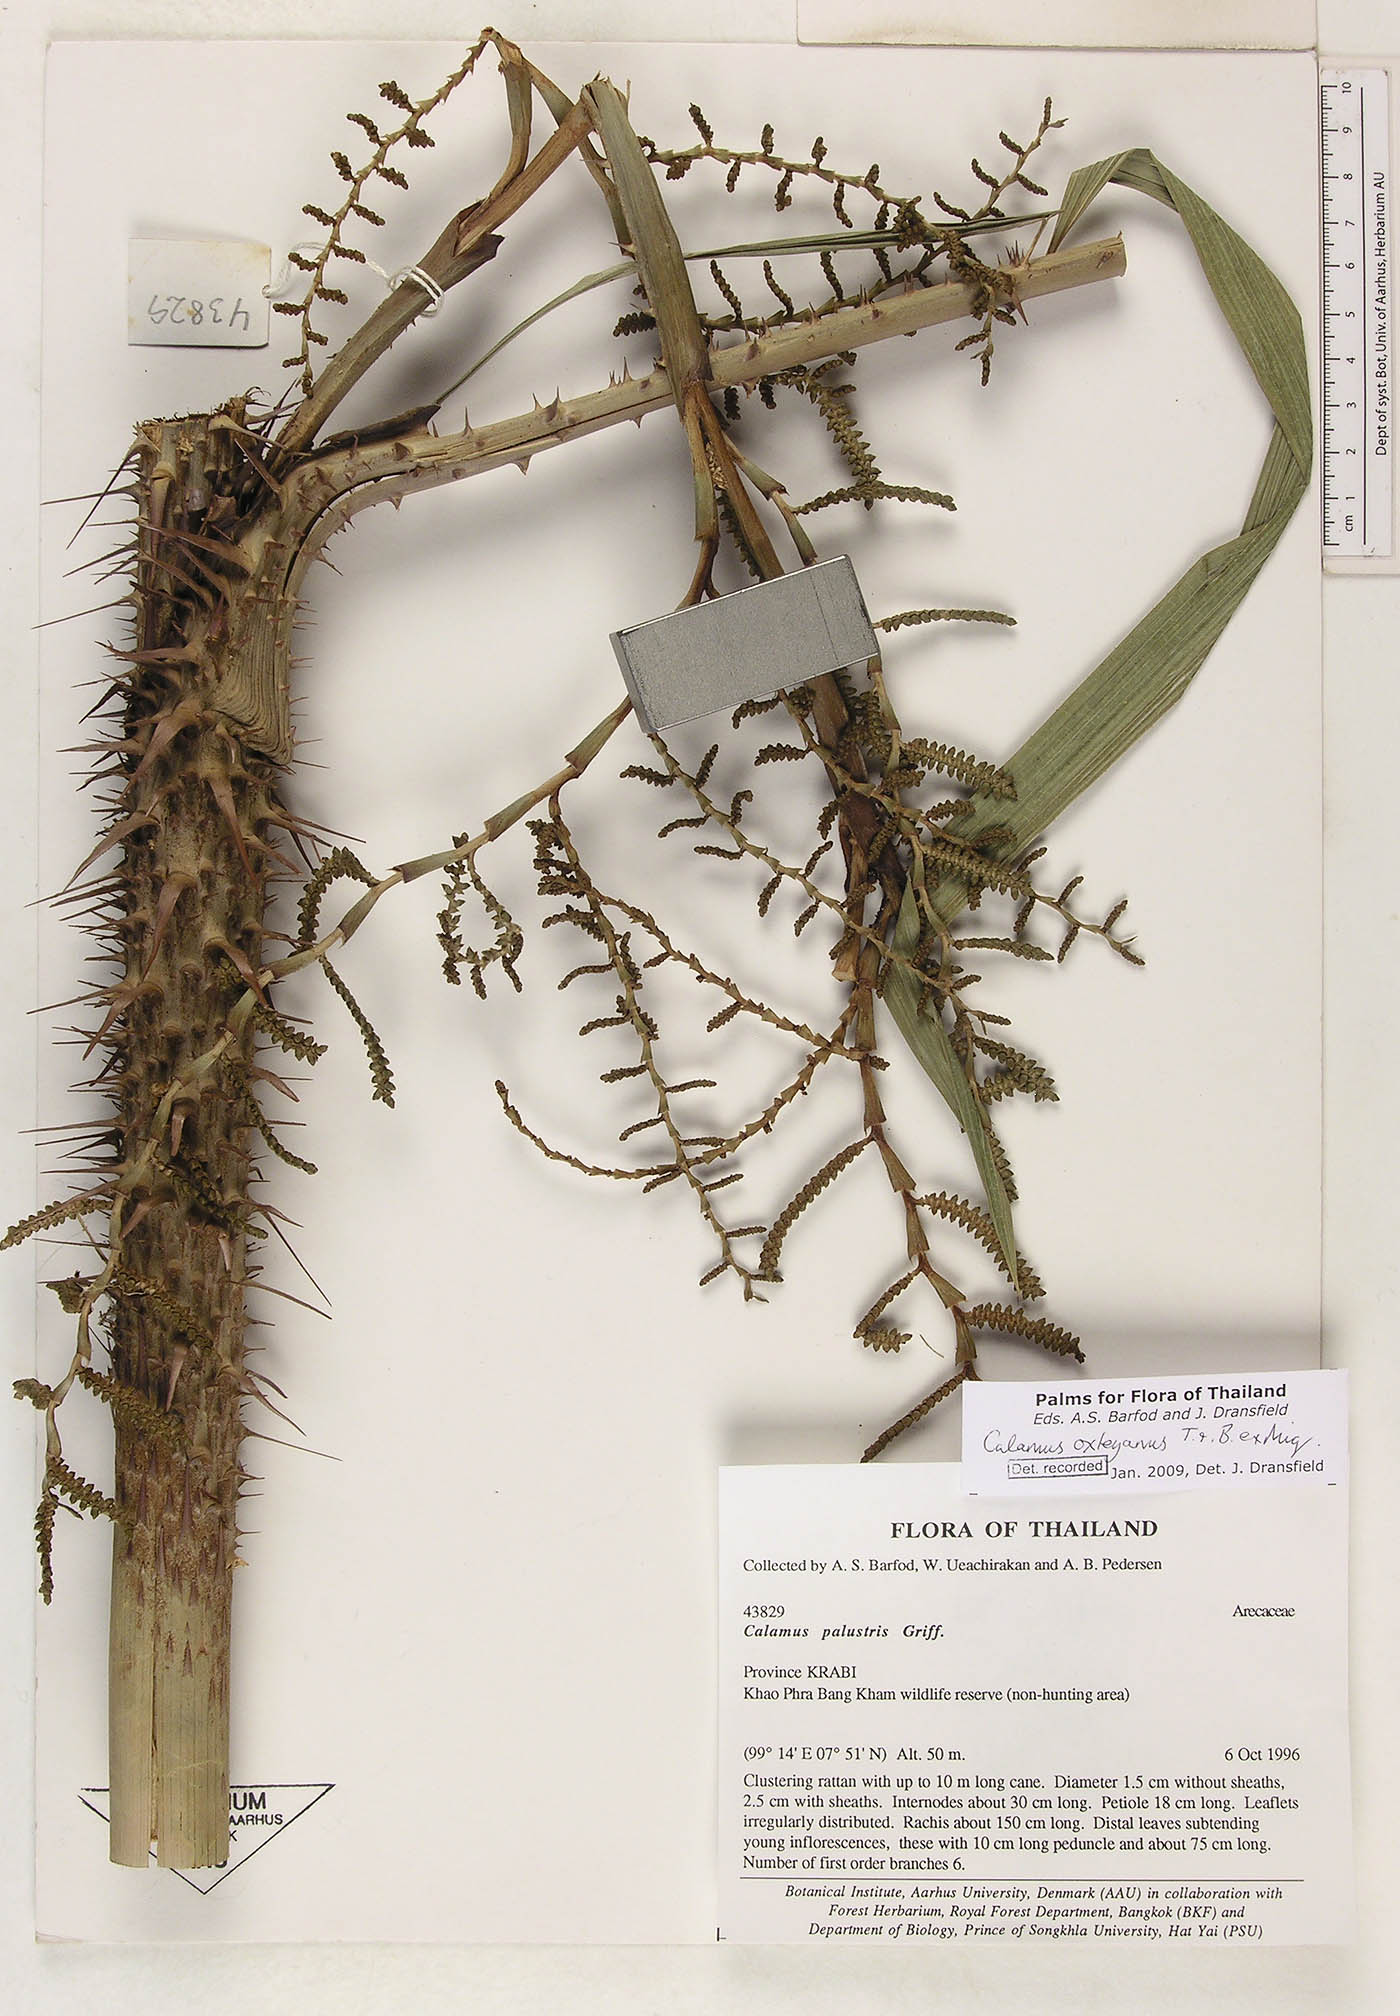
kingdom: Plantae
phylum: Tracheophyta
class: Liliopsida
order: Arecales
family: Arecaceae
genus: Calamus
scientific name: Calamus latifolius
